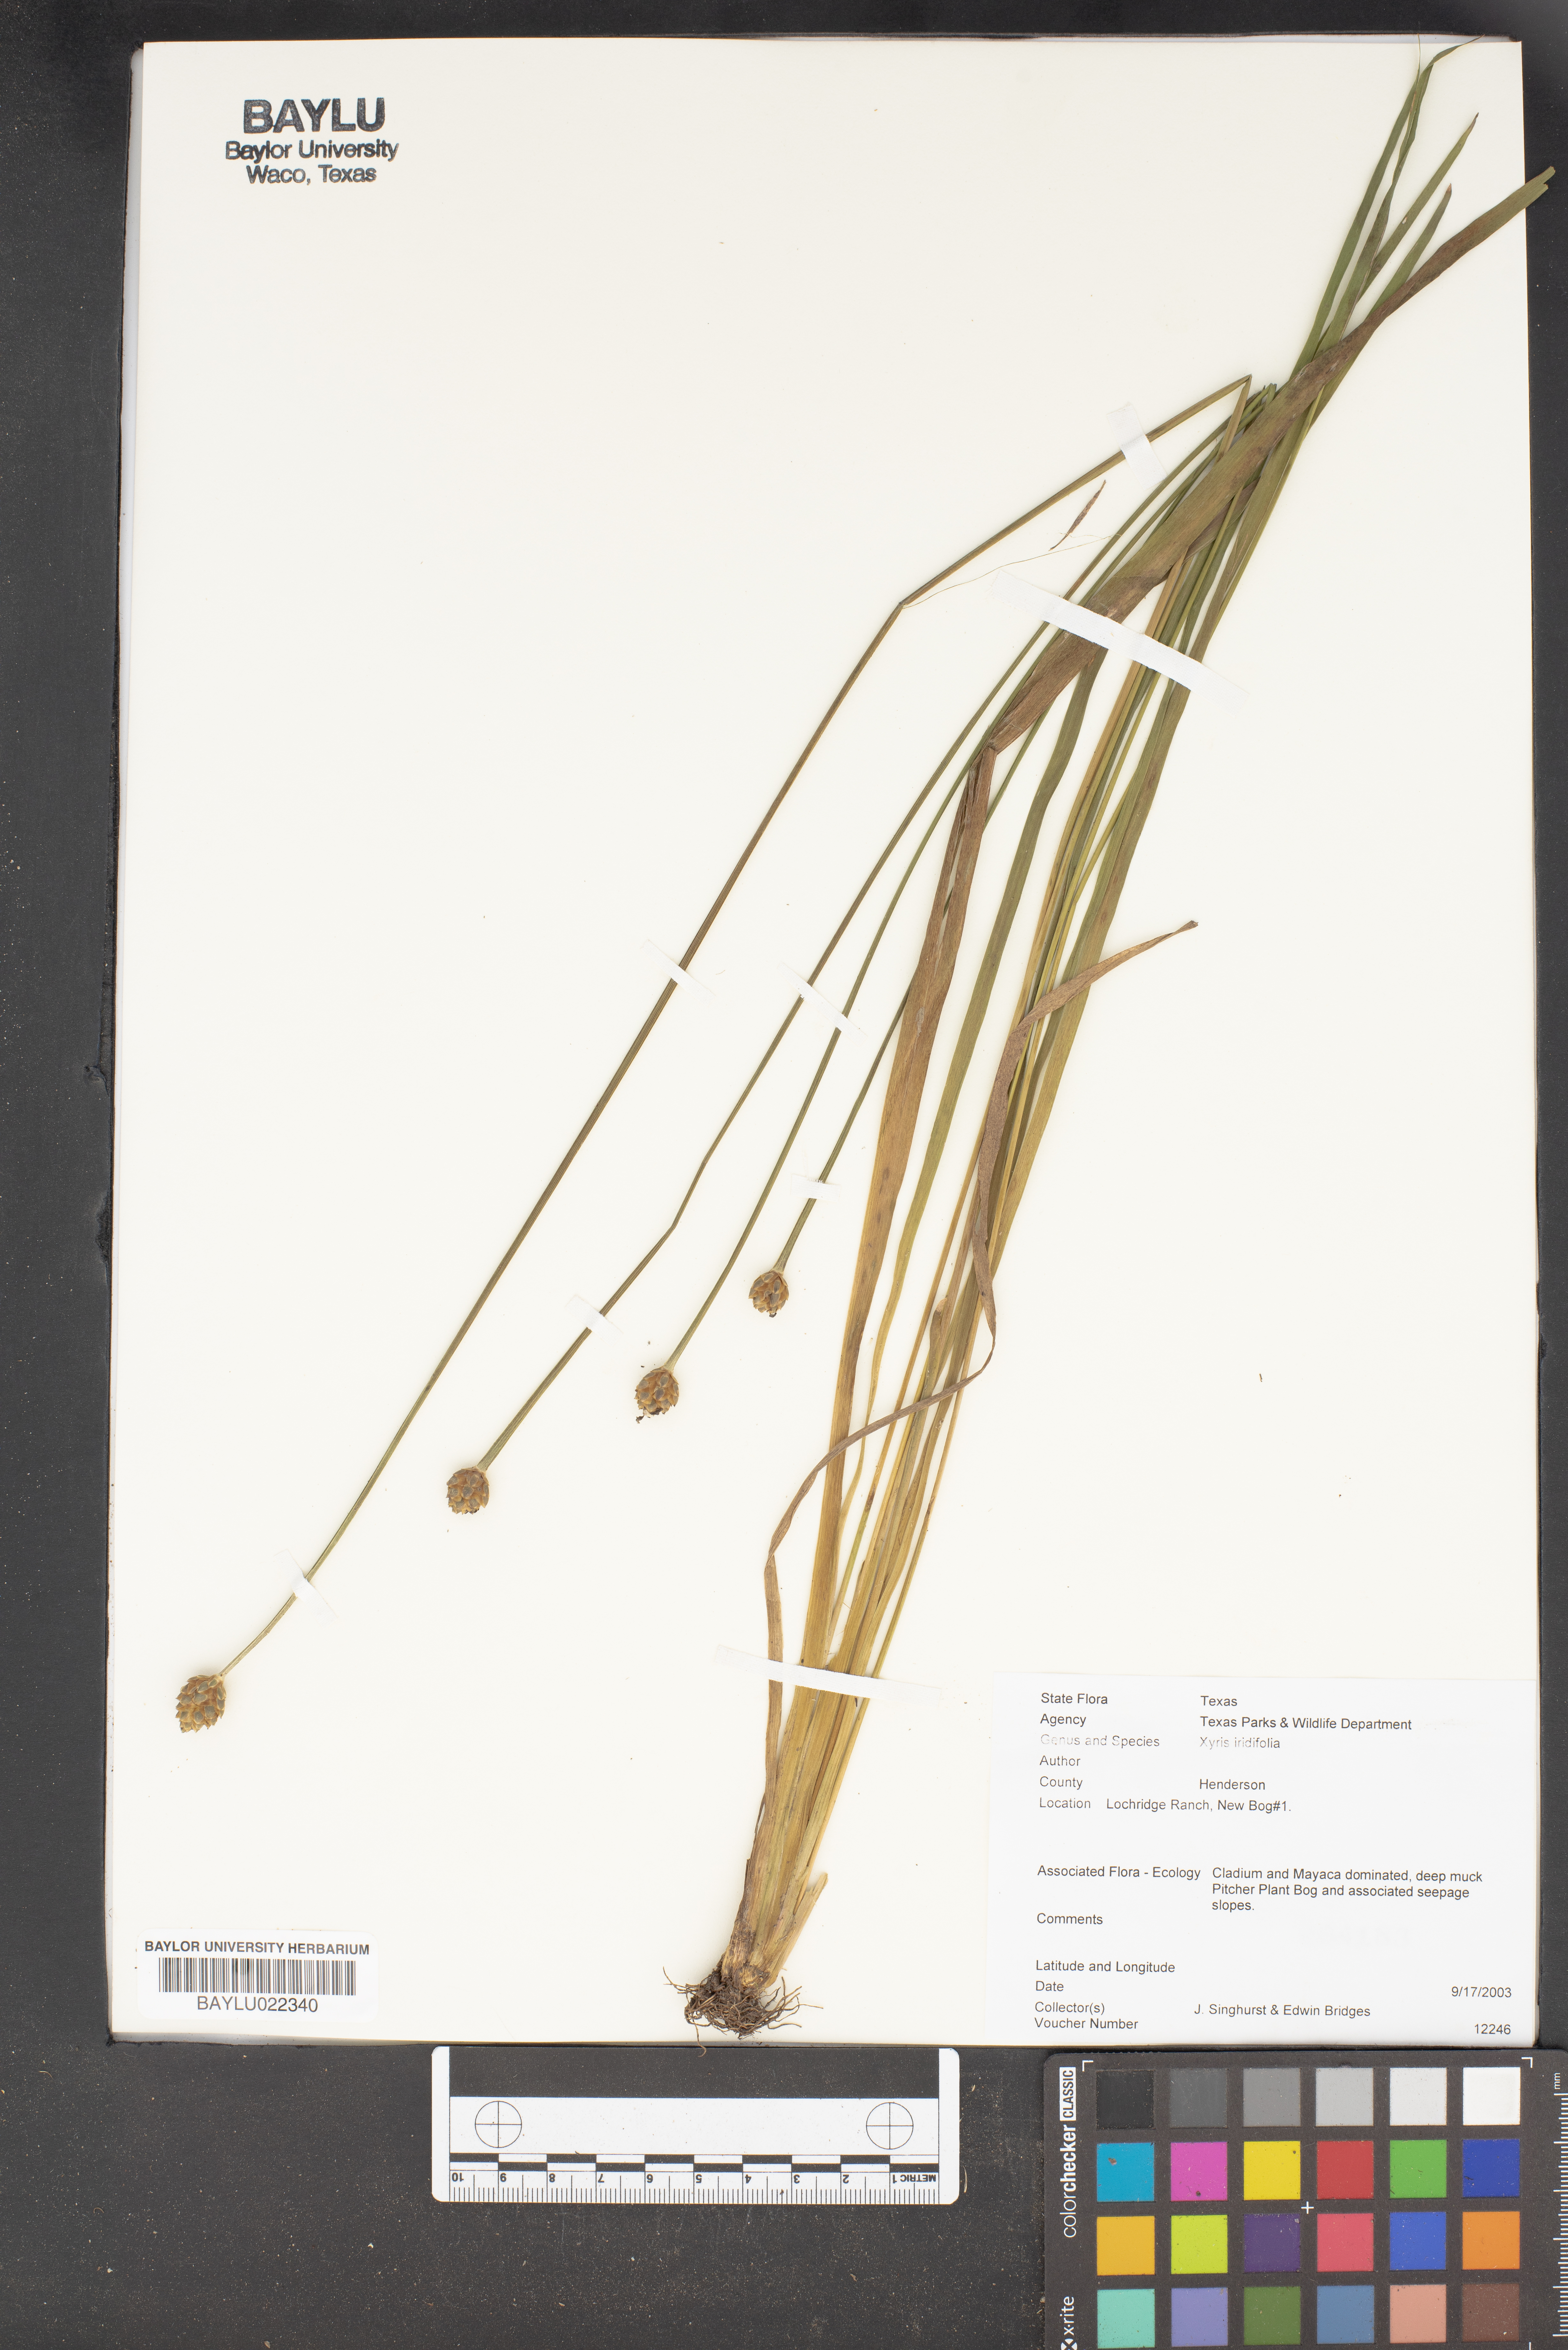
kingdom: Plantae
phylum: Tracheophyta
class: Liliopsida
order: Poales
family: Xyridaceae
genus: Xyris
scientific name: Xyris laxifolia
